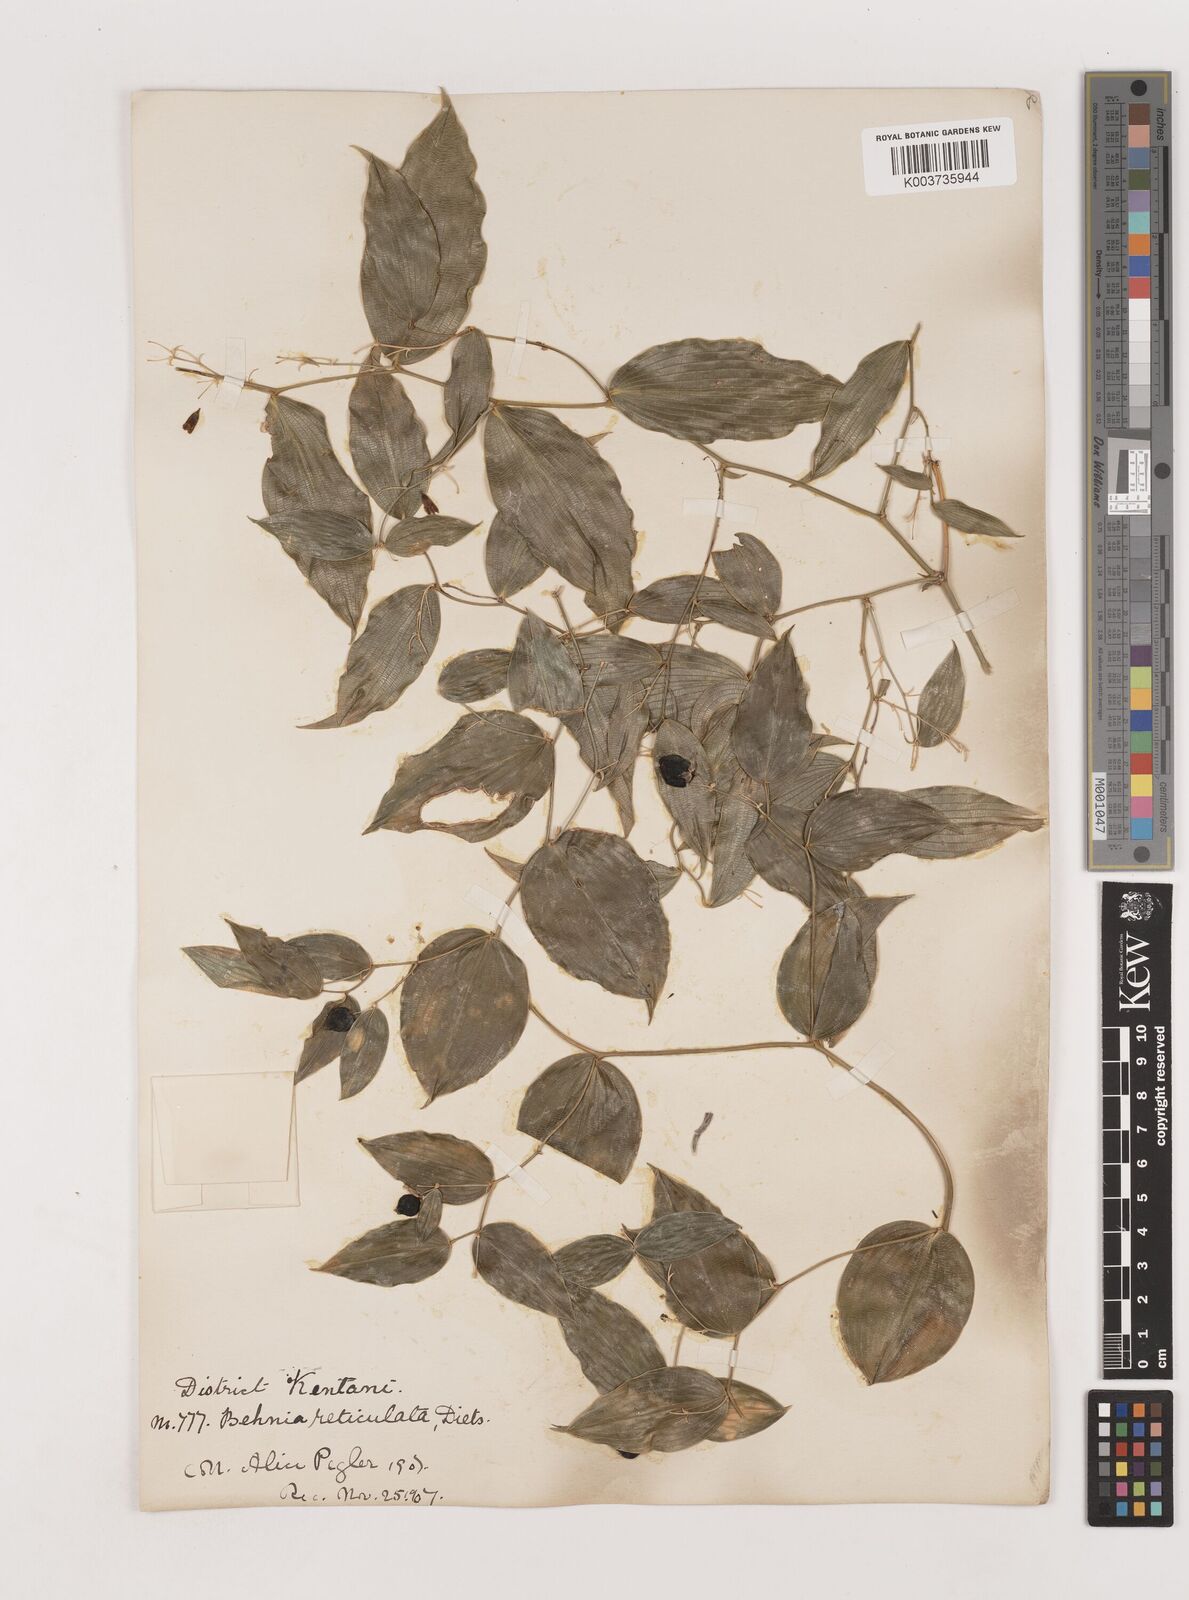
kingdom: Plantae
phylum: Tracheophyta
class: Liliopsida
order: Asparagales
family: Asparagaceae
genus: Behnia
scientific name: Behnia reticulata
